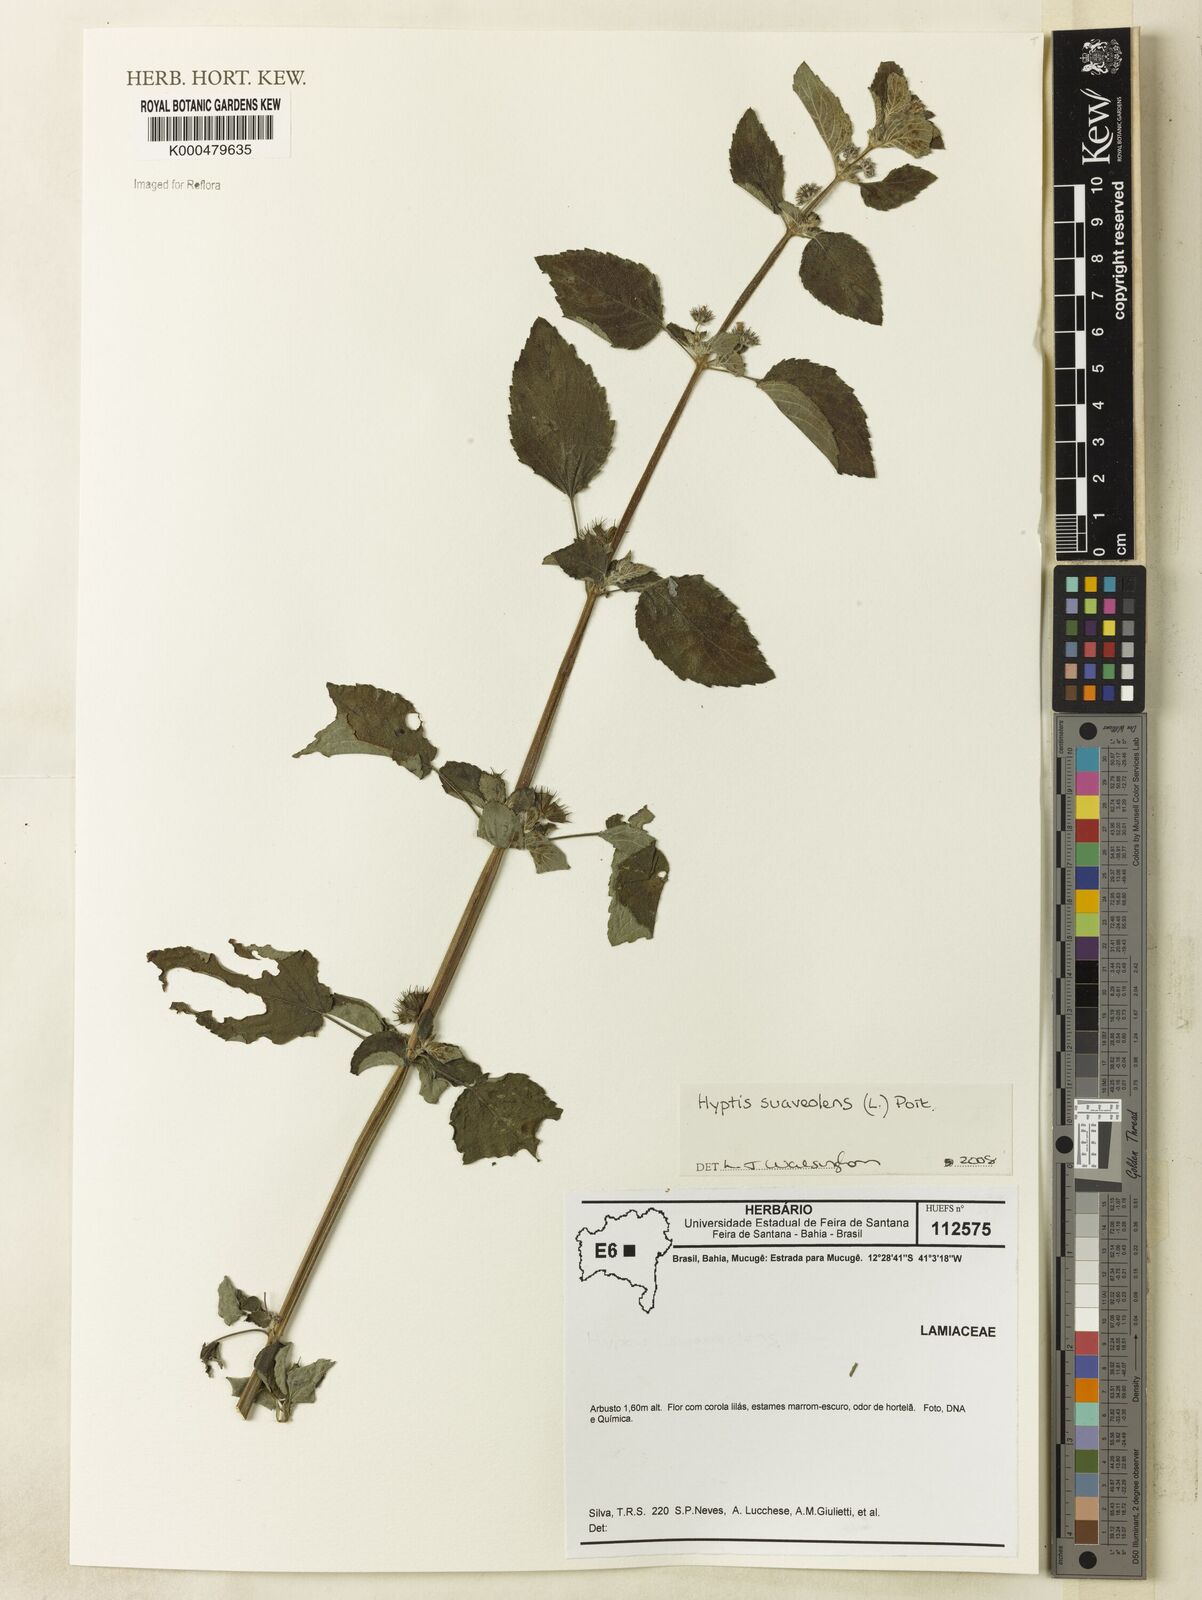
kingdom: Plantae
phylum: Tracheophyta
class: Magnoliopsida
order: Lamiales
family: Lamiaceae
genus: Mesosphaerum
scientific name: Mesosphaerum suaveolens
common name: Pignut
